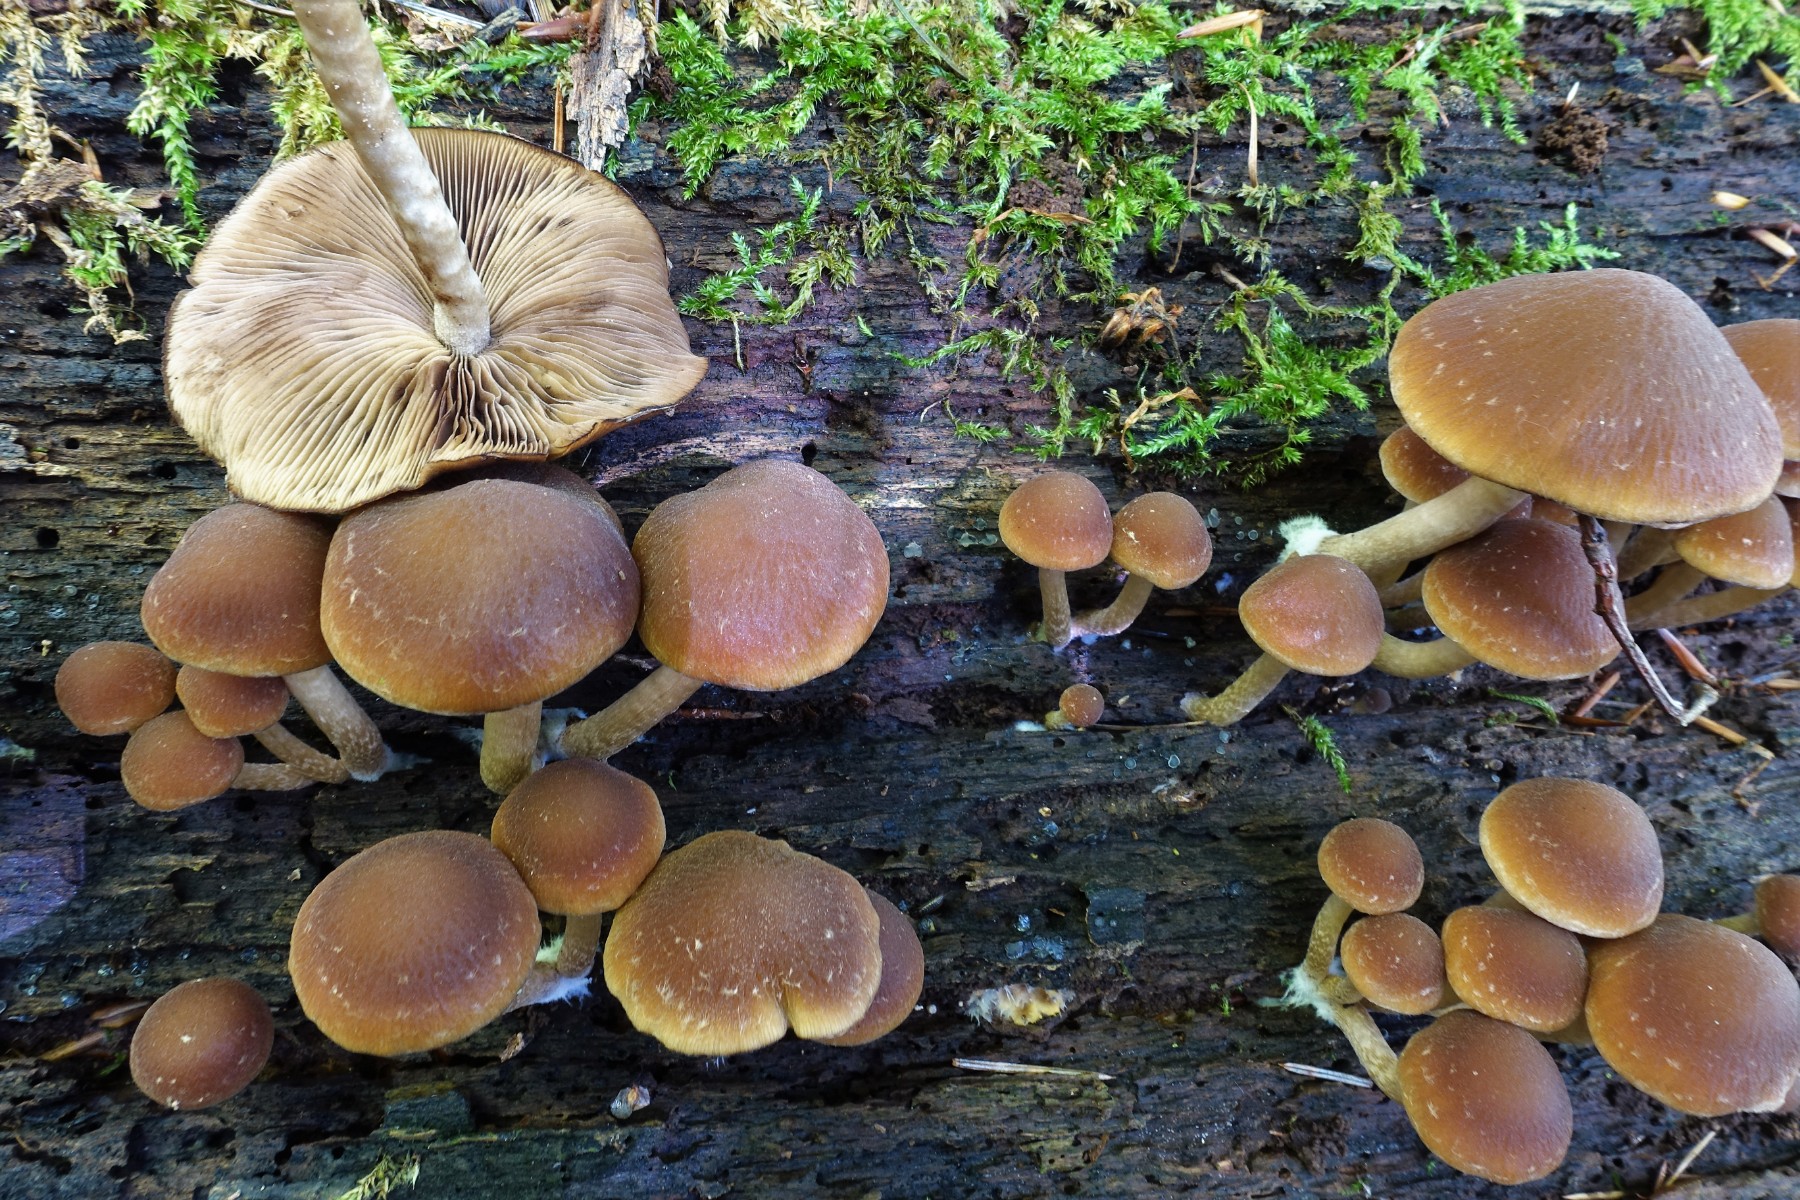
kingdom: Fungi
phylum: Basidiomycota
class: Agaricomycetes
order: Agaricales
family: Psathyrellaceae
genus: Psathyrella
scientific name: Psathyrella piluliformis
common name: lysstokket mørkhat
